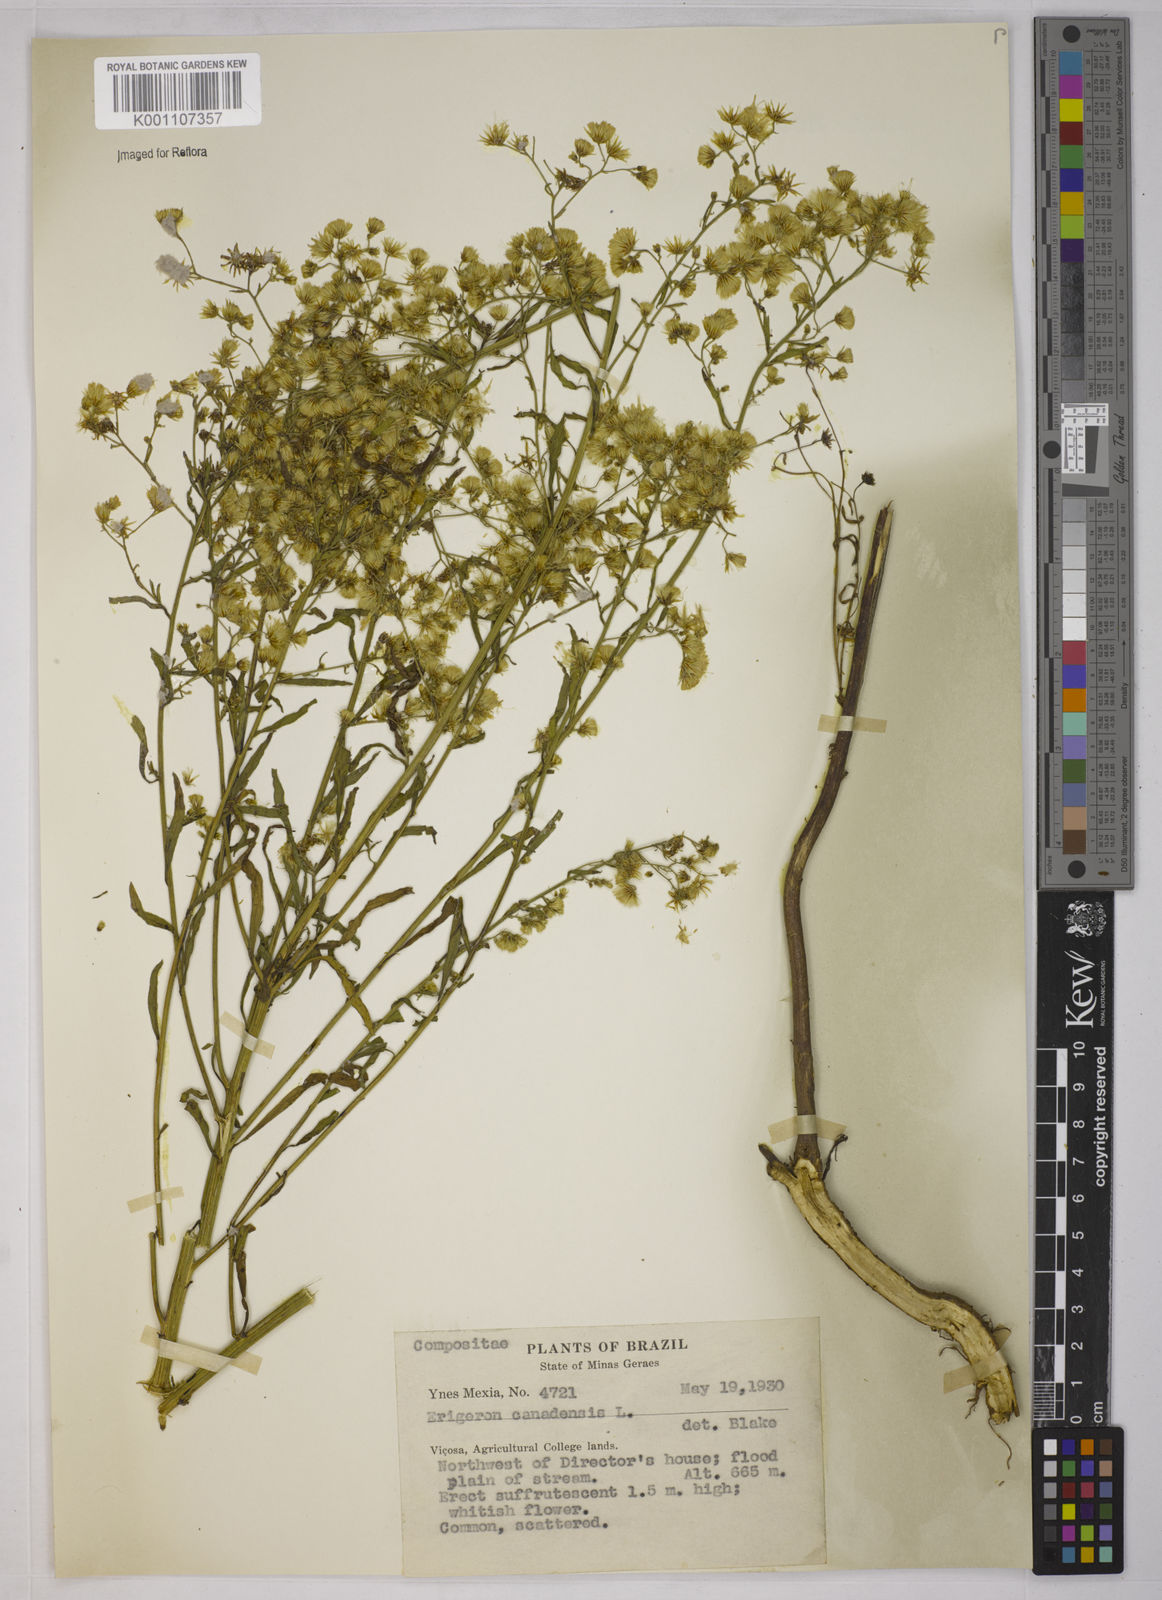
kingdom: Plantae
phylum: Tracheophyta
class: Magnoliopsida
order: Asterales
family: Asteraceae
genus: Erigeron
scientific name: Erigeron canadensis
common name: Canadian fleabane
